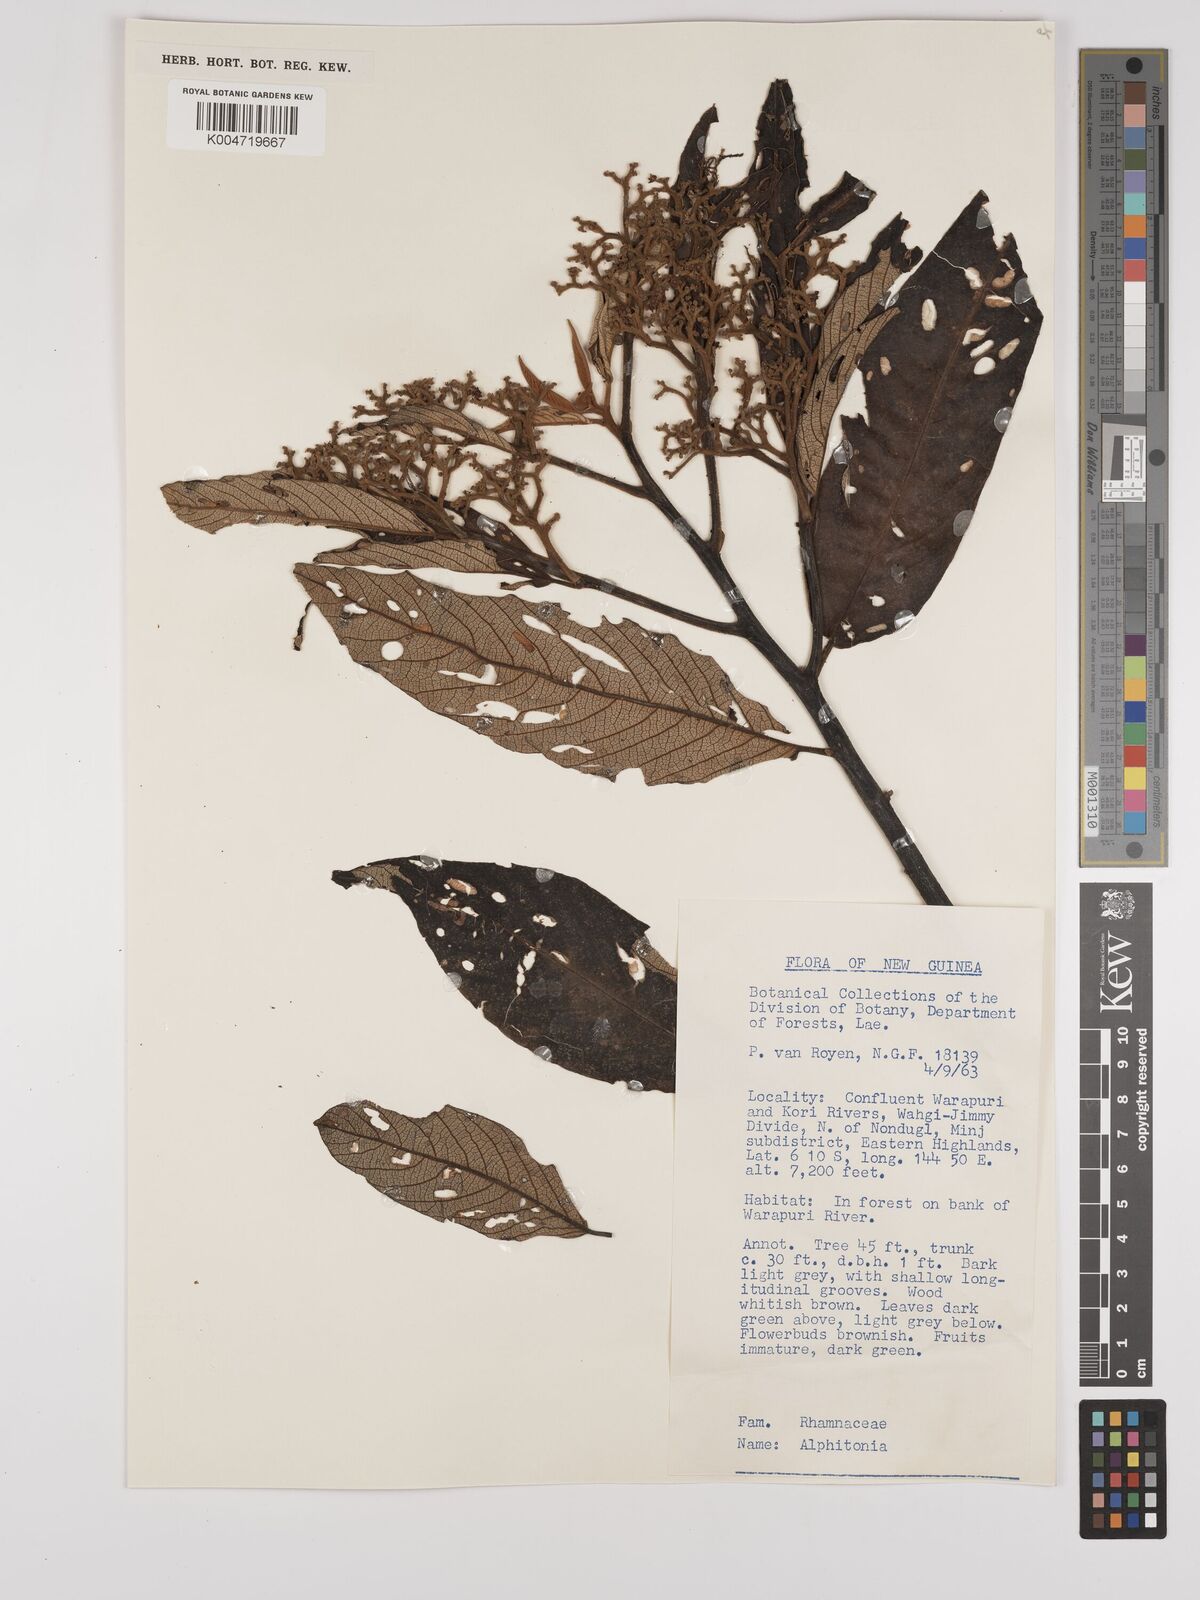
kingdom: Plantae
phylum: Tracheophyta
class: Magnoliopsida
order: Rosales
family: Rhamnaceae
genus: Alphitonia
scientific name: Alphitonia
